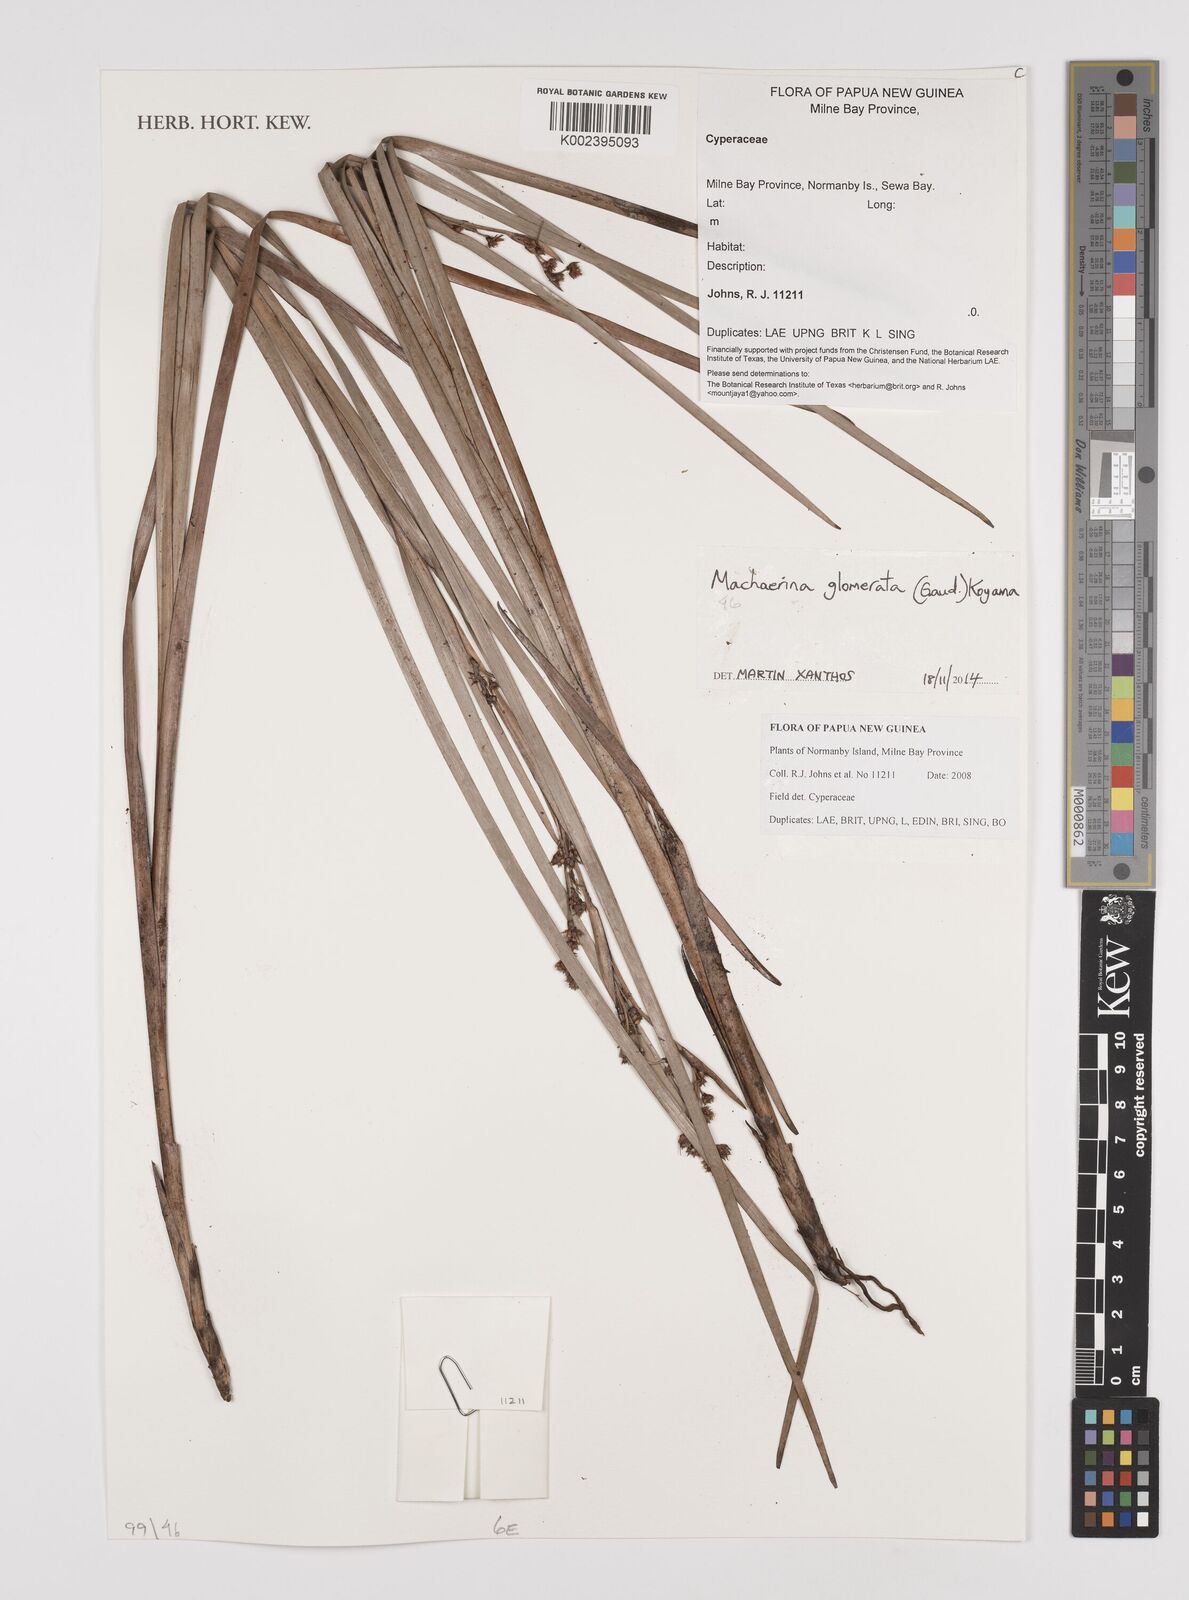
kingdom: Plantae
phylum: Tracheophyta
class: Liliopsida
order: Poales
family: Cyperaceae
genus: Machaerina
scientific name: Machaerina glomerata
